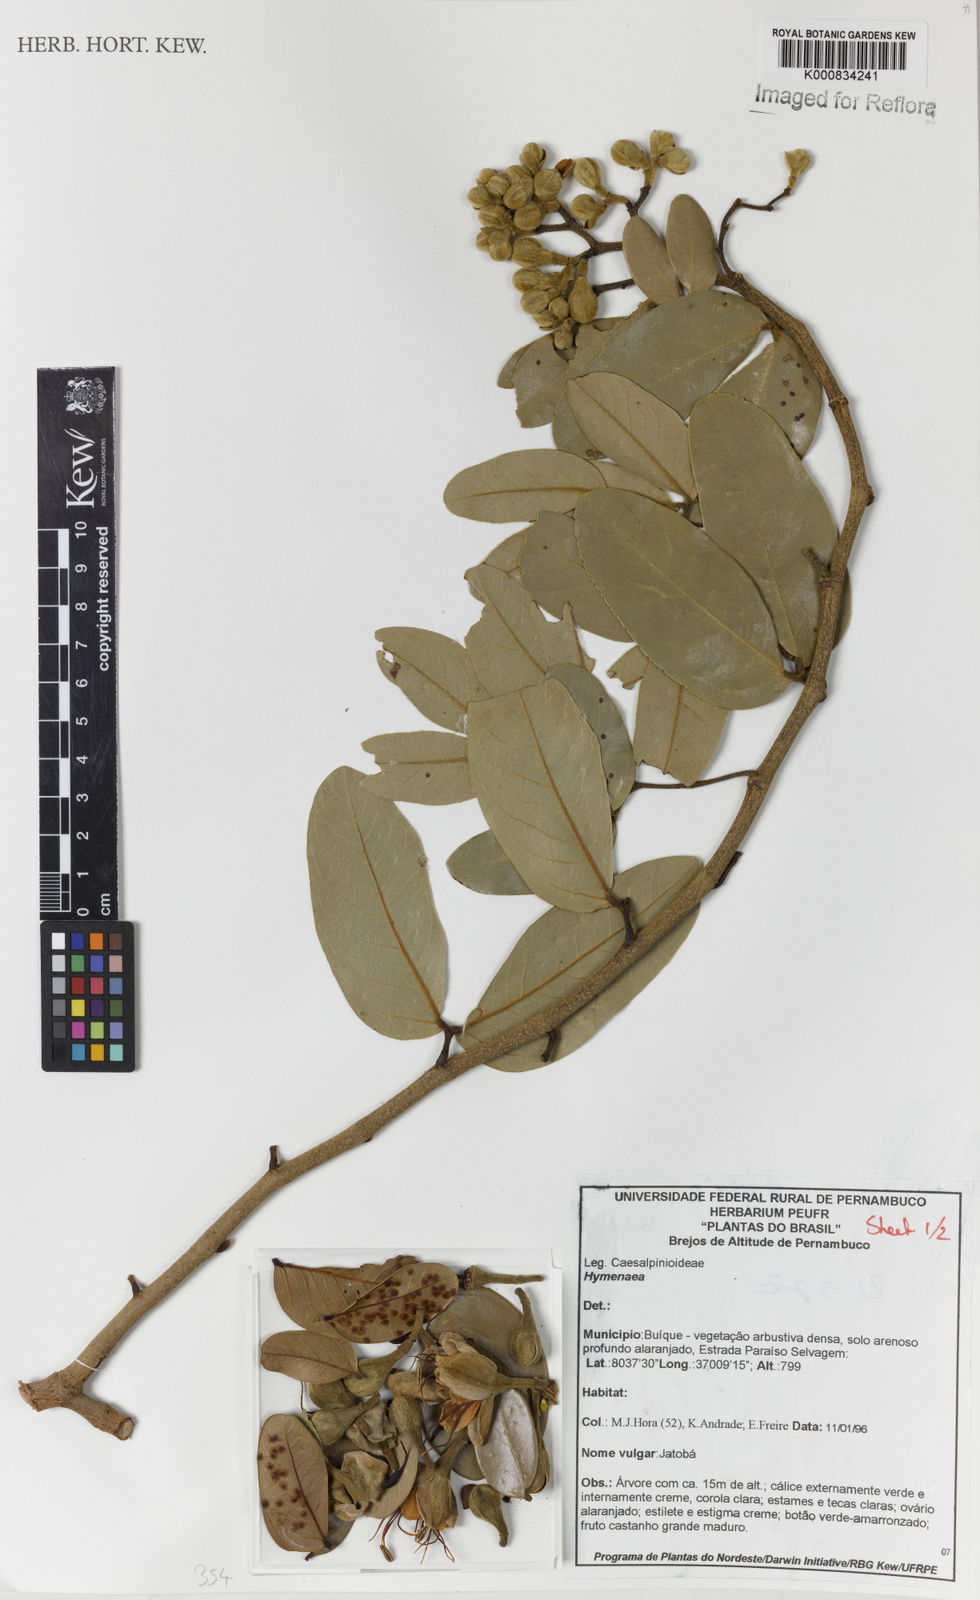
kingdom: Plantae
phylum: Tracheophyta
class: Magnoliopsida
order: Fabales
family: Fabaceae
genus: Hymenaea
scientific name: Hymenaea
